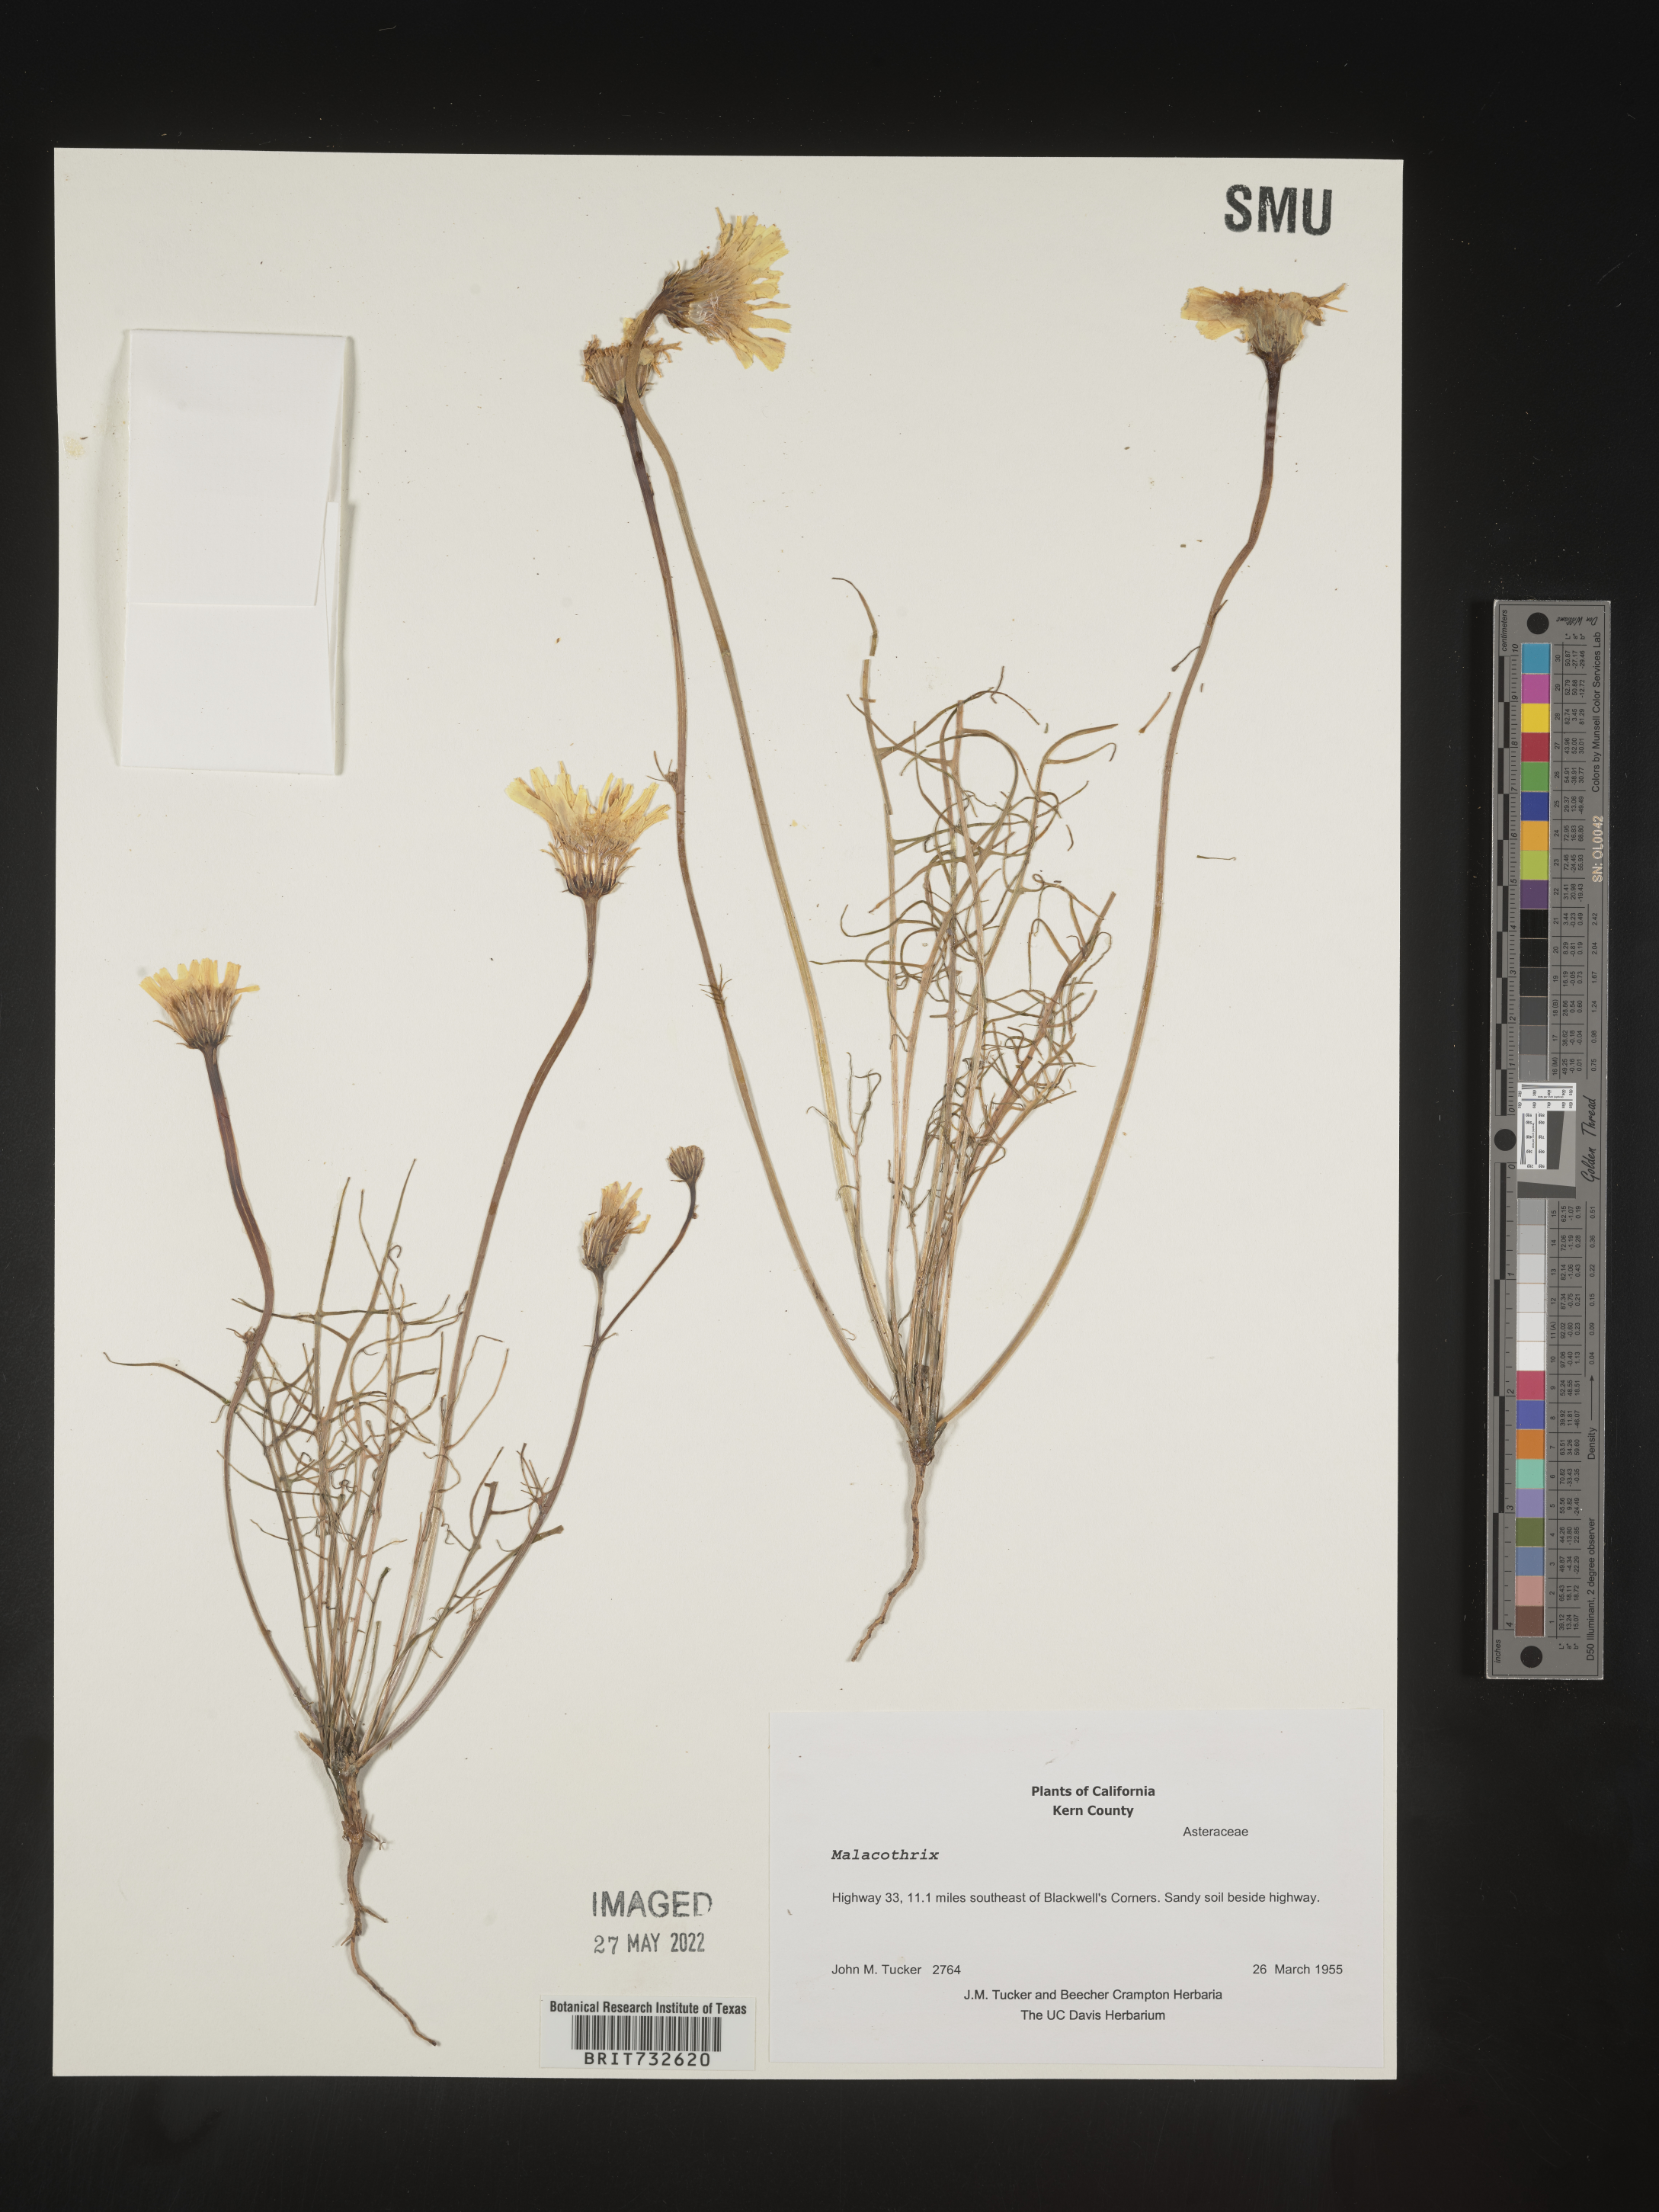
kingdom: Plantae
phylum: Tracheophyta
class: Magnoliopsida
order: Asterales
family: Asteraceae
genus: Malacothrix
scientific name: Malacothrix
